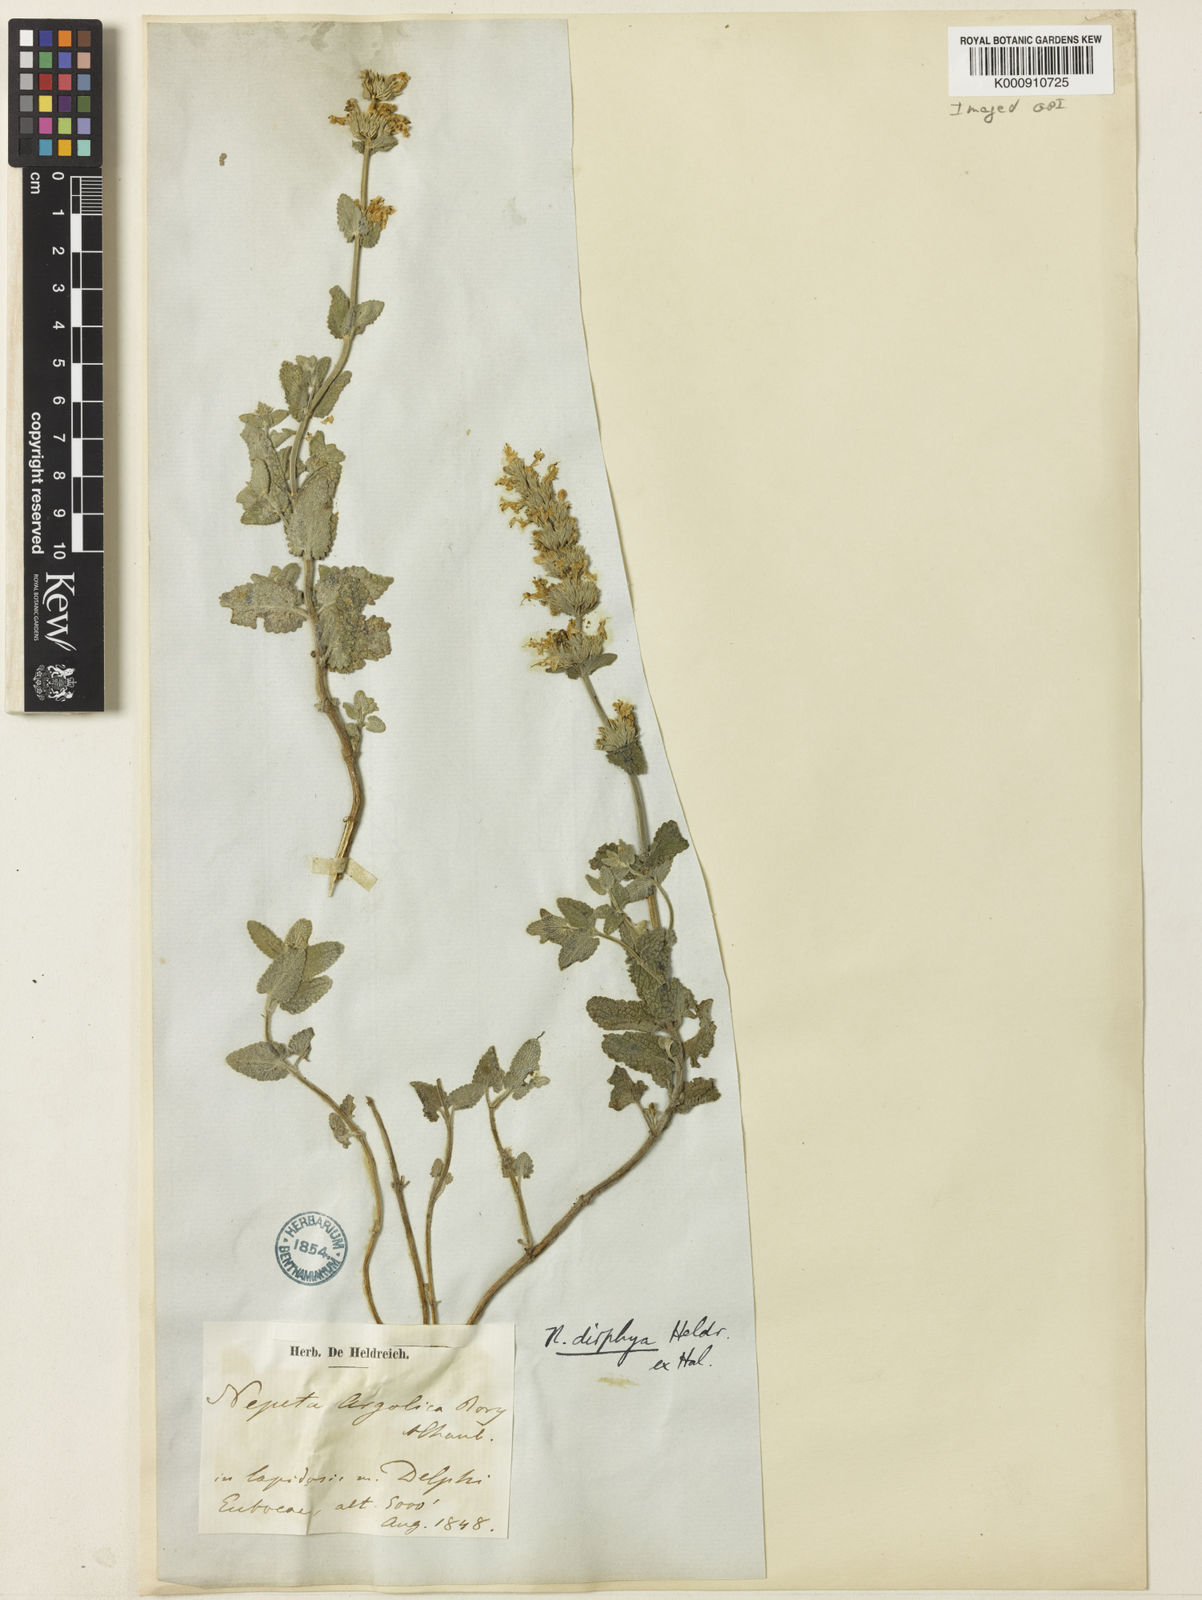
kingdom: Plantae
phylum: Tracheophyta
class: Magnoliopsida
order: Lamiales
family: Lamiaceae
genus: Nepeta
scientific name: Nepeta
